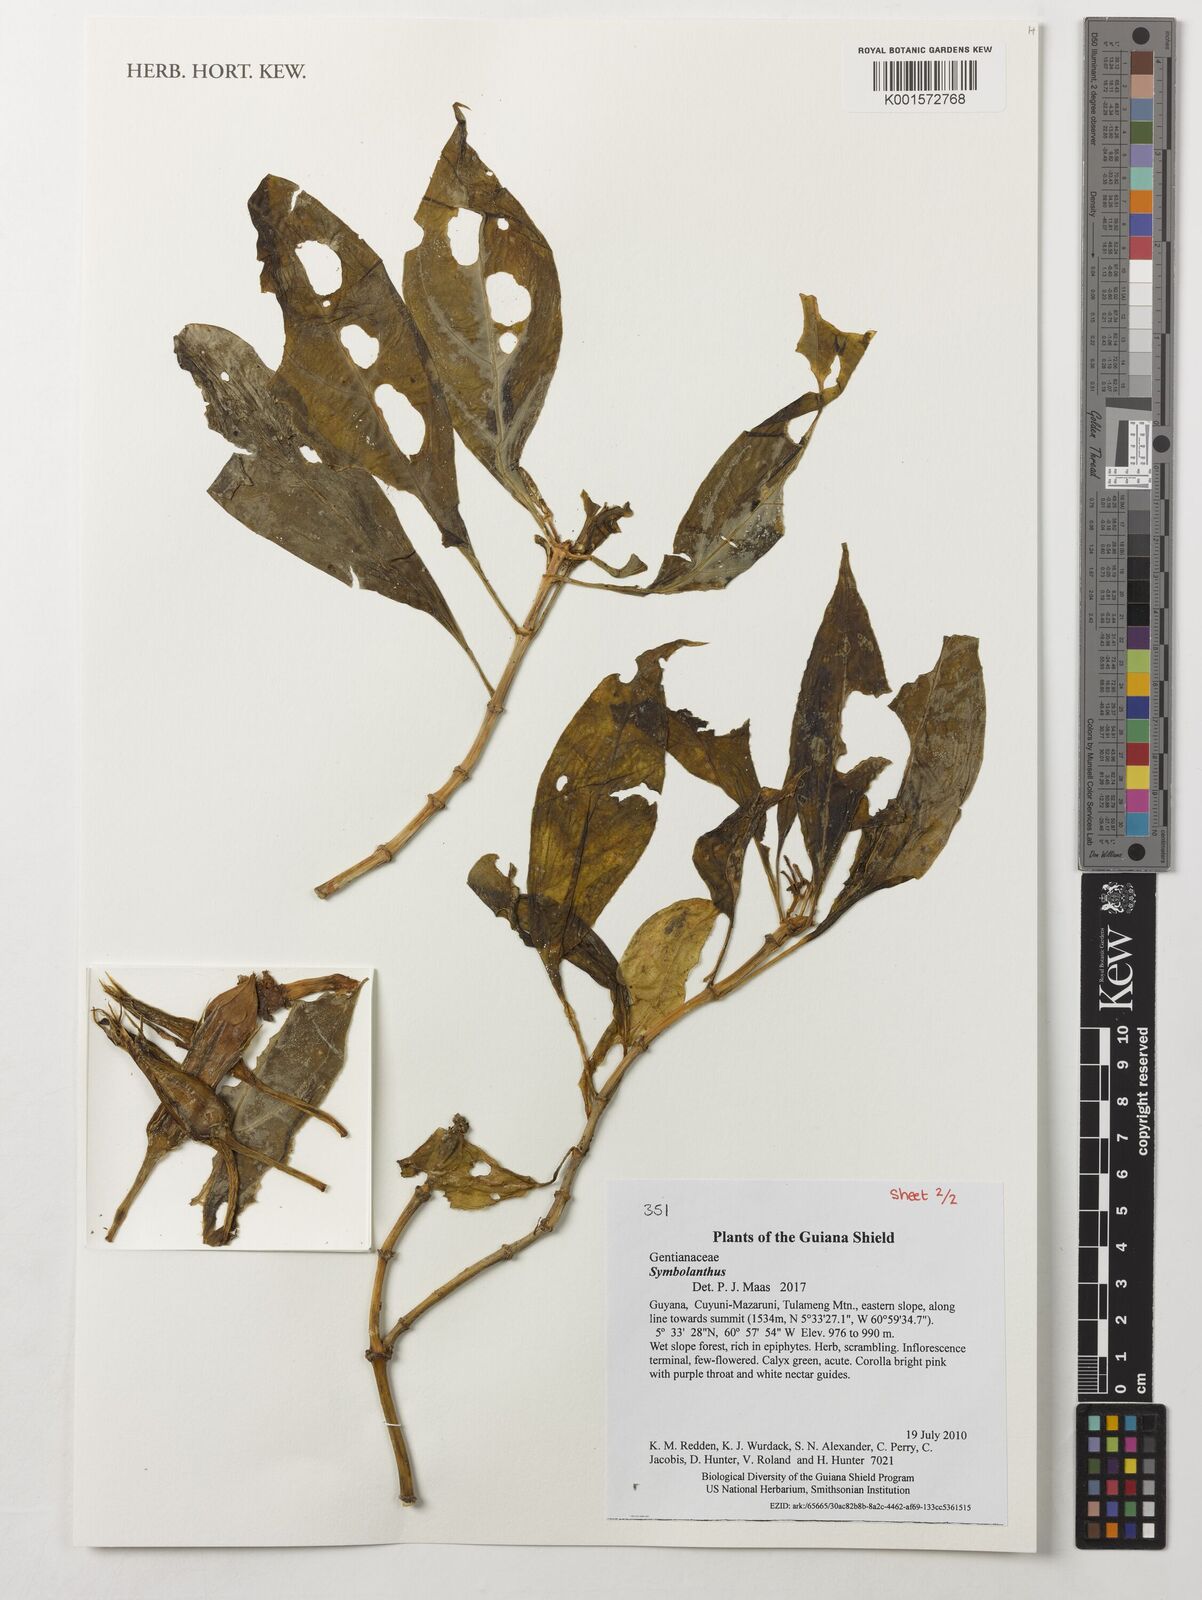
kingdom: Plantae
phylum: Tracheophyta
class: Magnoliopsida
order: Gentianales
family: Gentianaceae
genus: Symbolanthus
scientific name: Symbolanthus
